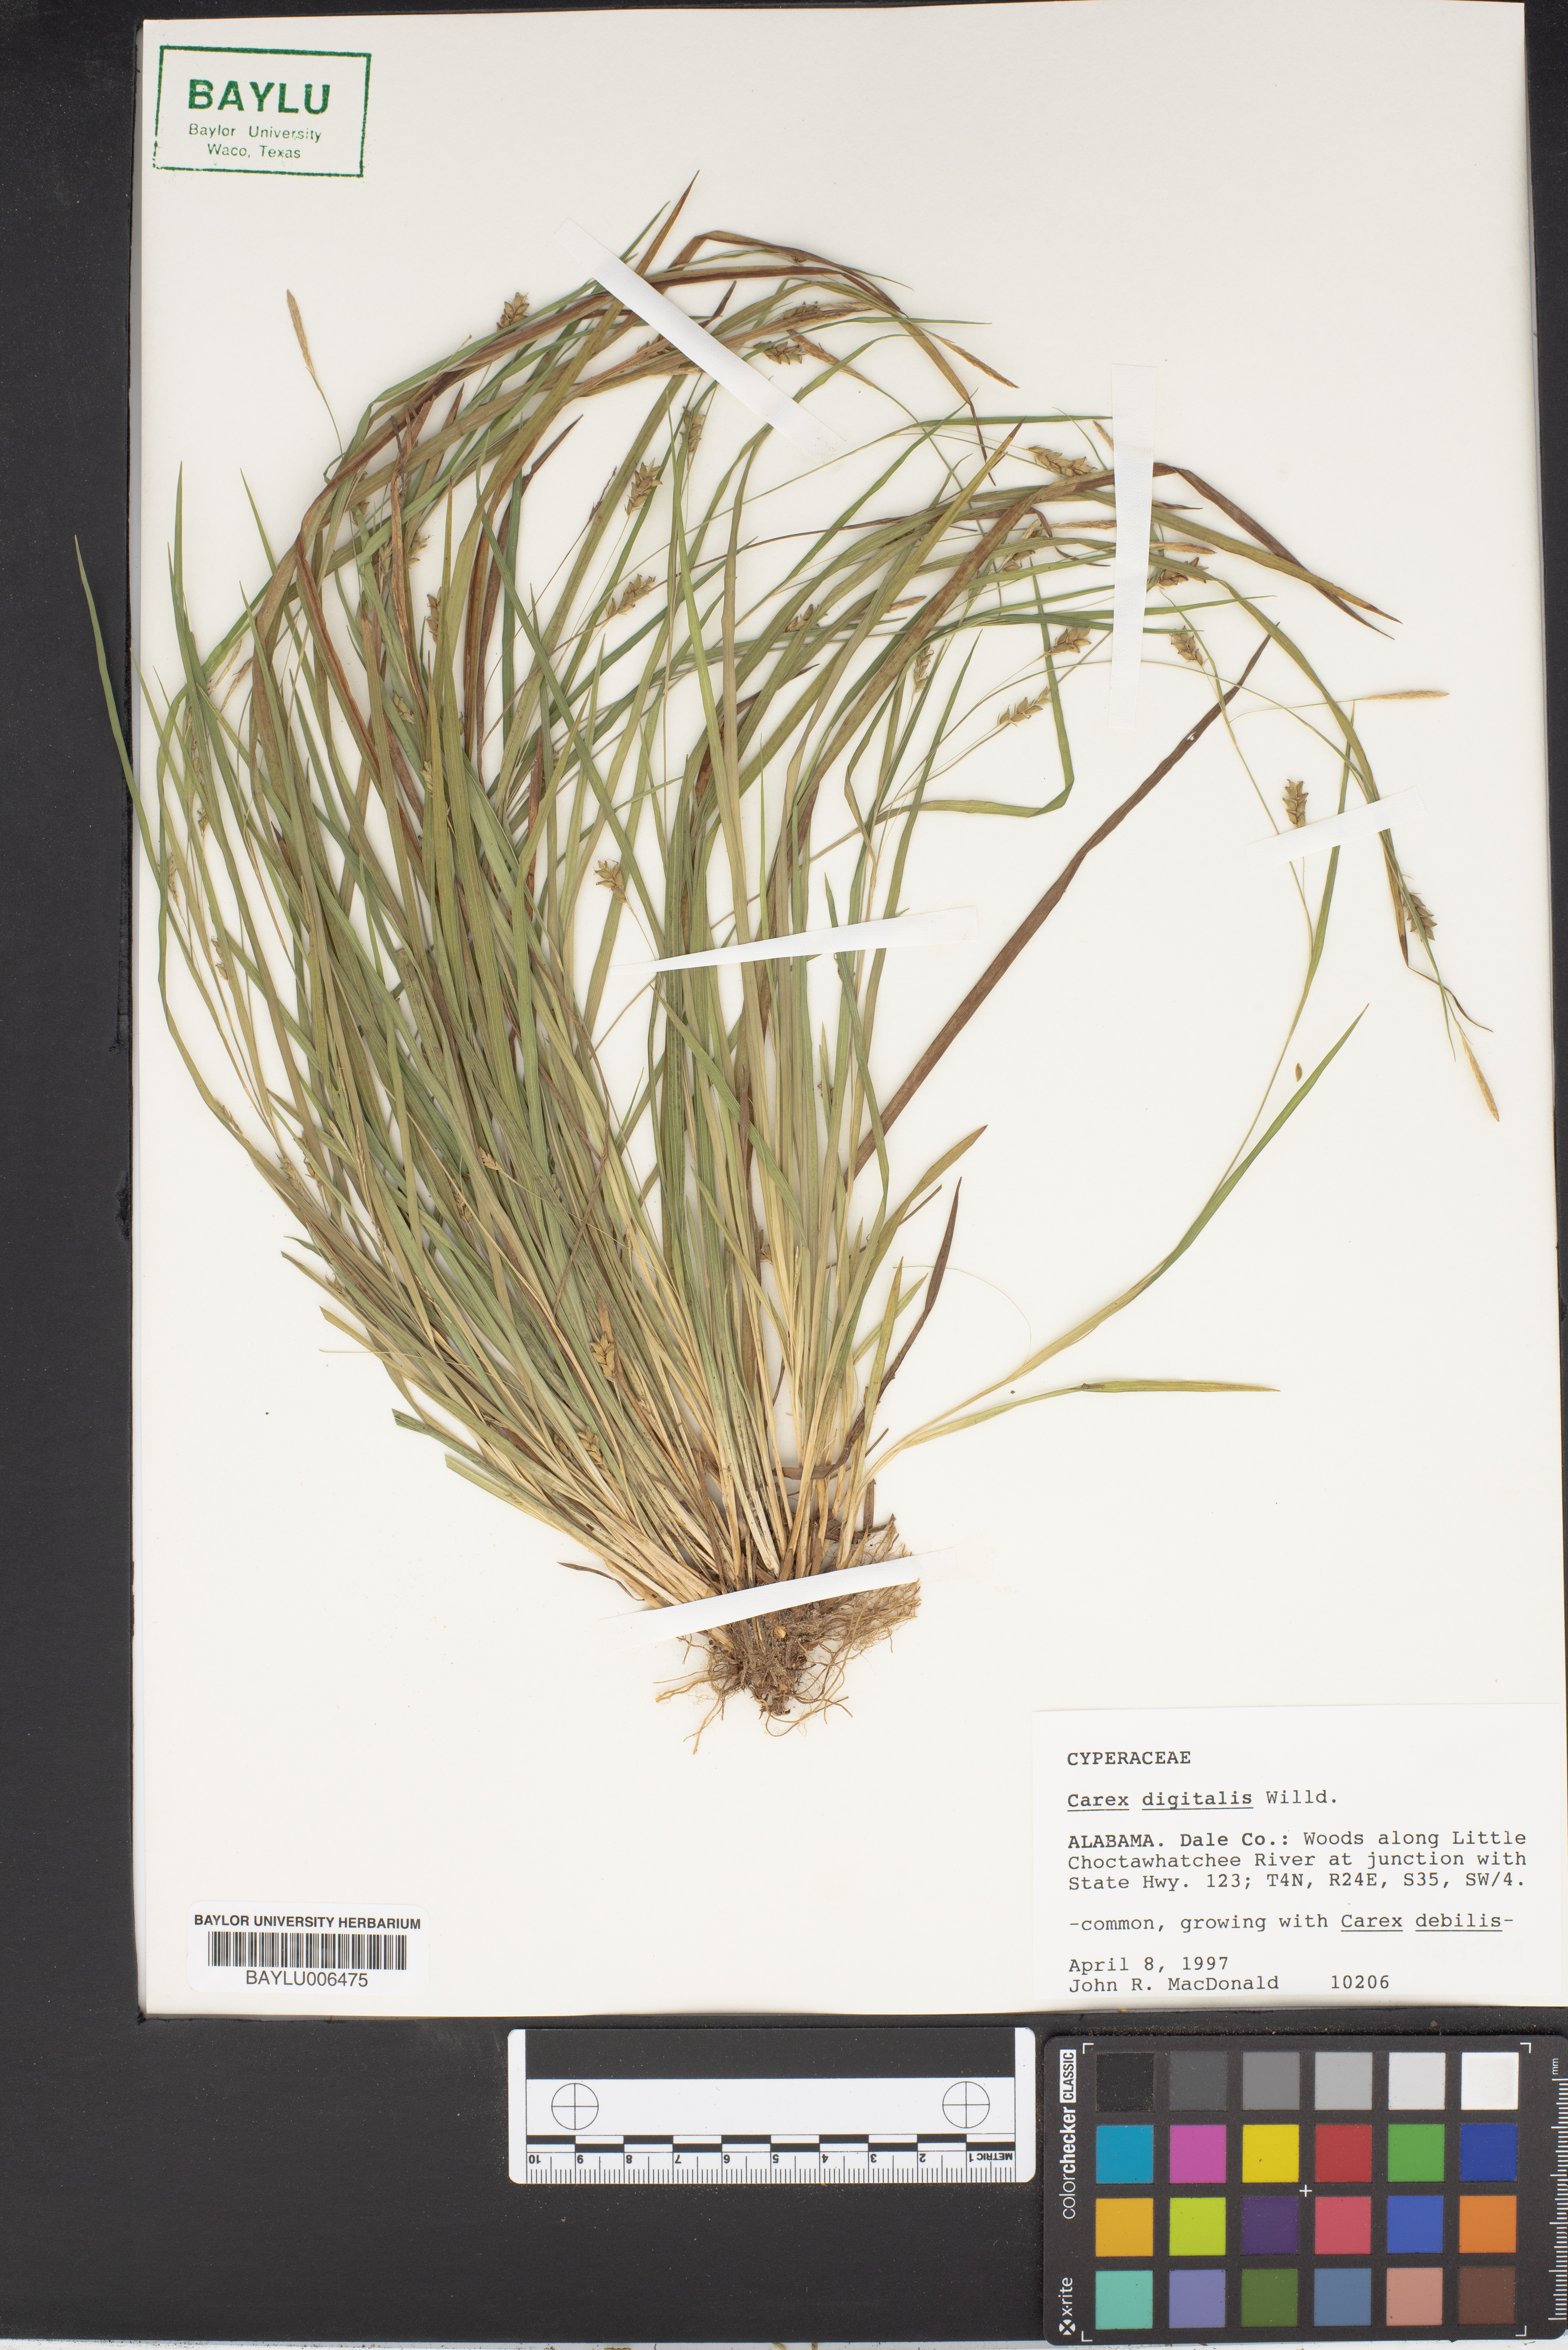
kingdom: Plantae
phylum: Tracheophyta
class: Liliopsida
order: Poales
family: Cyperaceae
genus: Carex
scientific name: Carex digitalis
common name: Slender wood sedge
